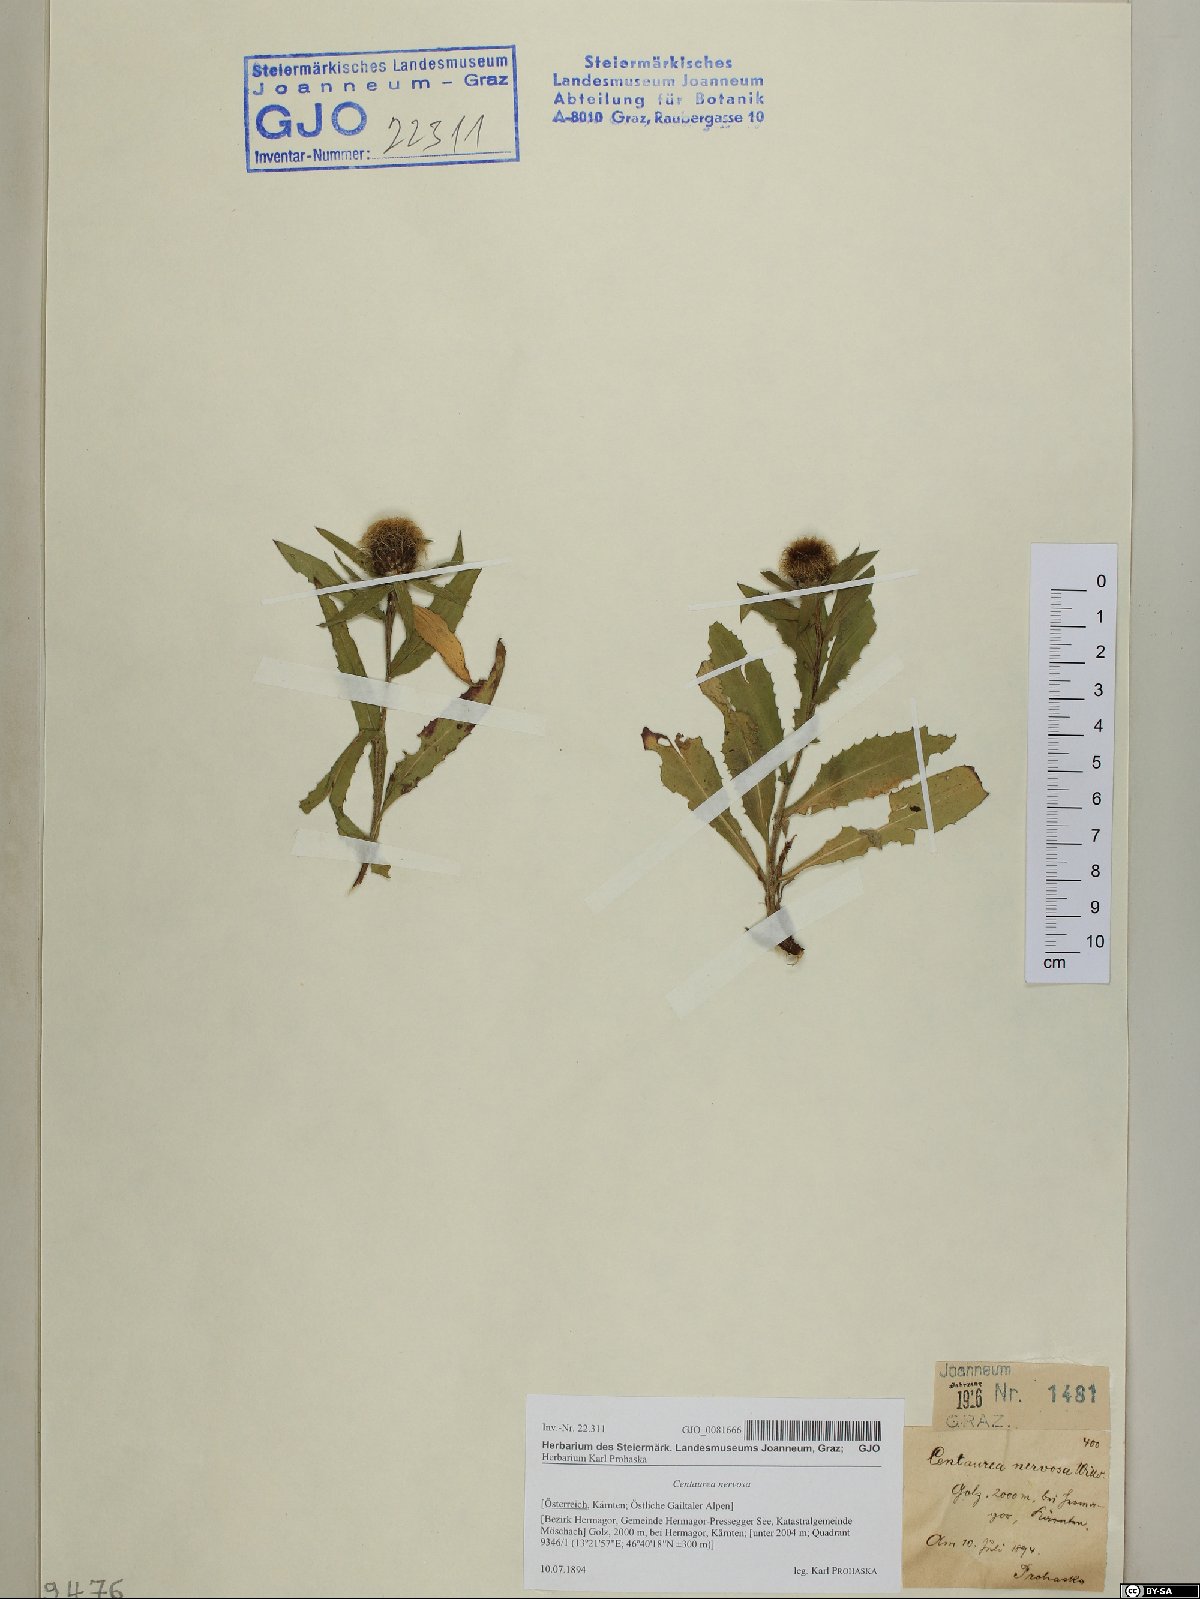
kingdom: Plantae
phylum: Tracheophyta
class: Magnoliopsida
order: Asterales
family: Asteraceae
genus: Centaurea
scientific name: Centaurea nervosa
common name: Singleflower knapweed
